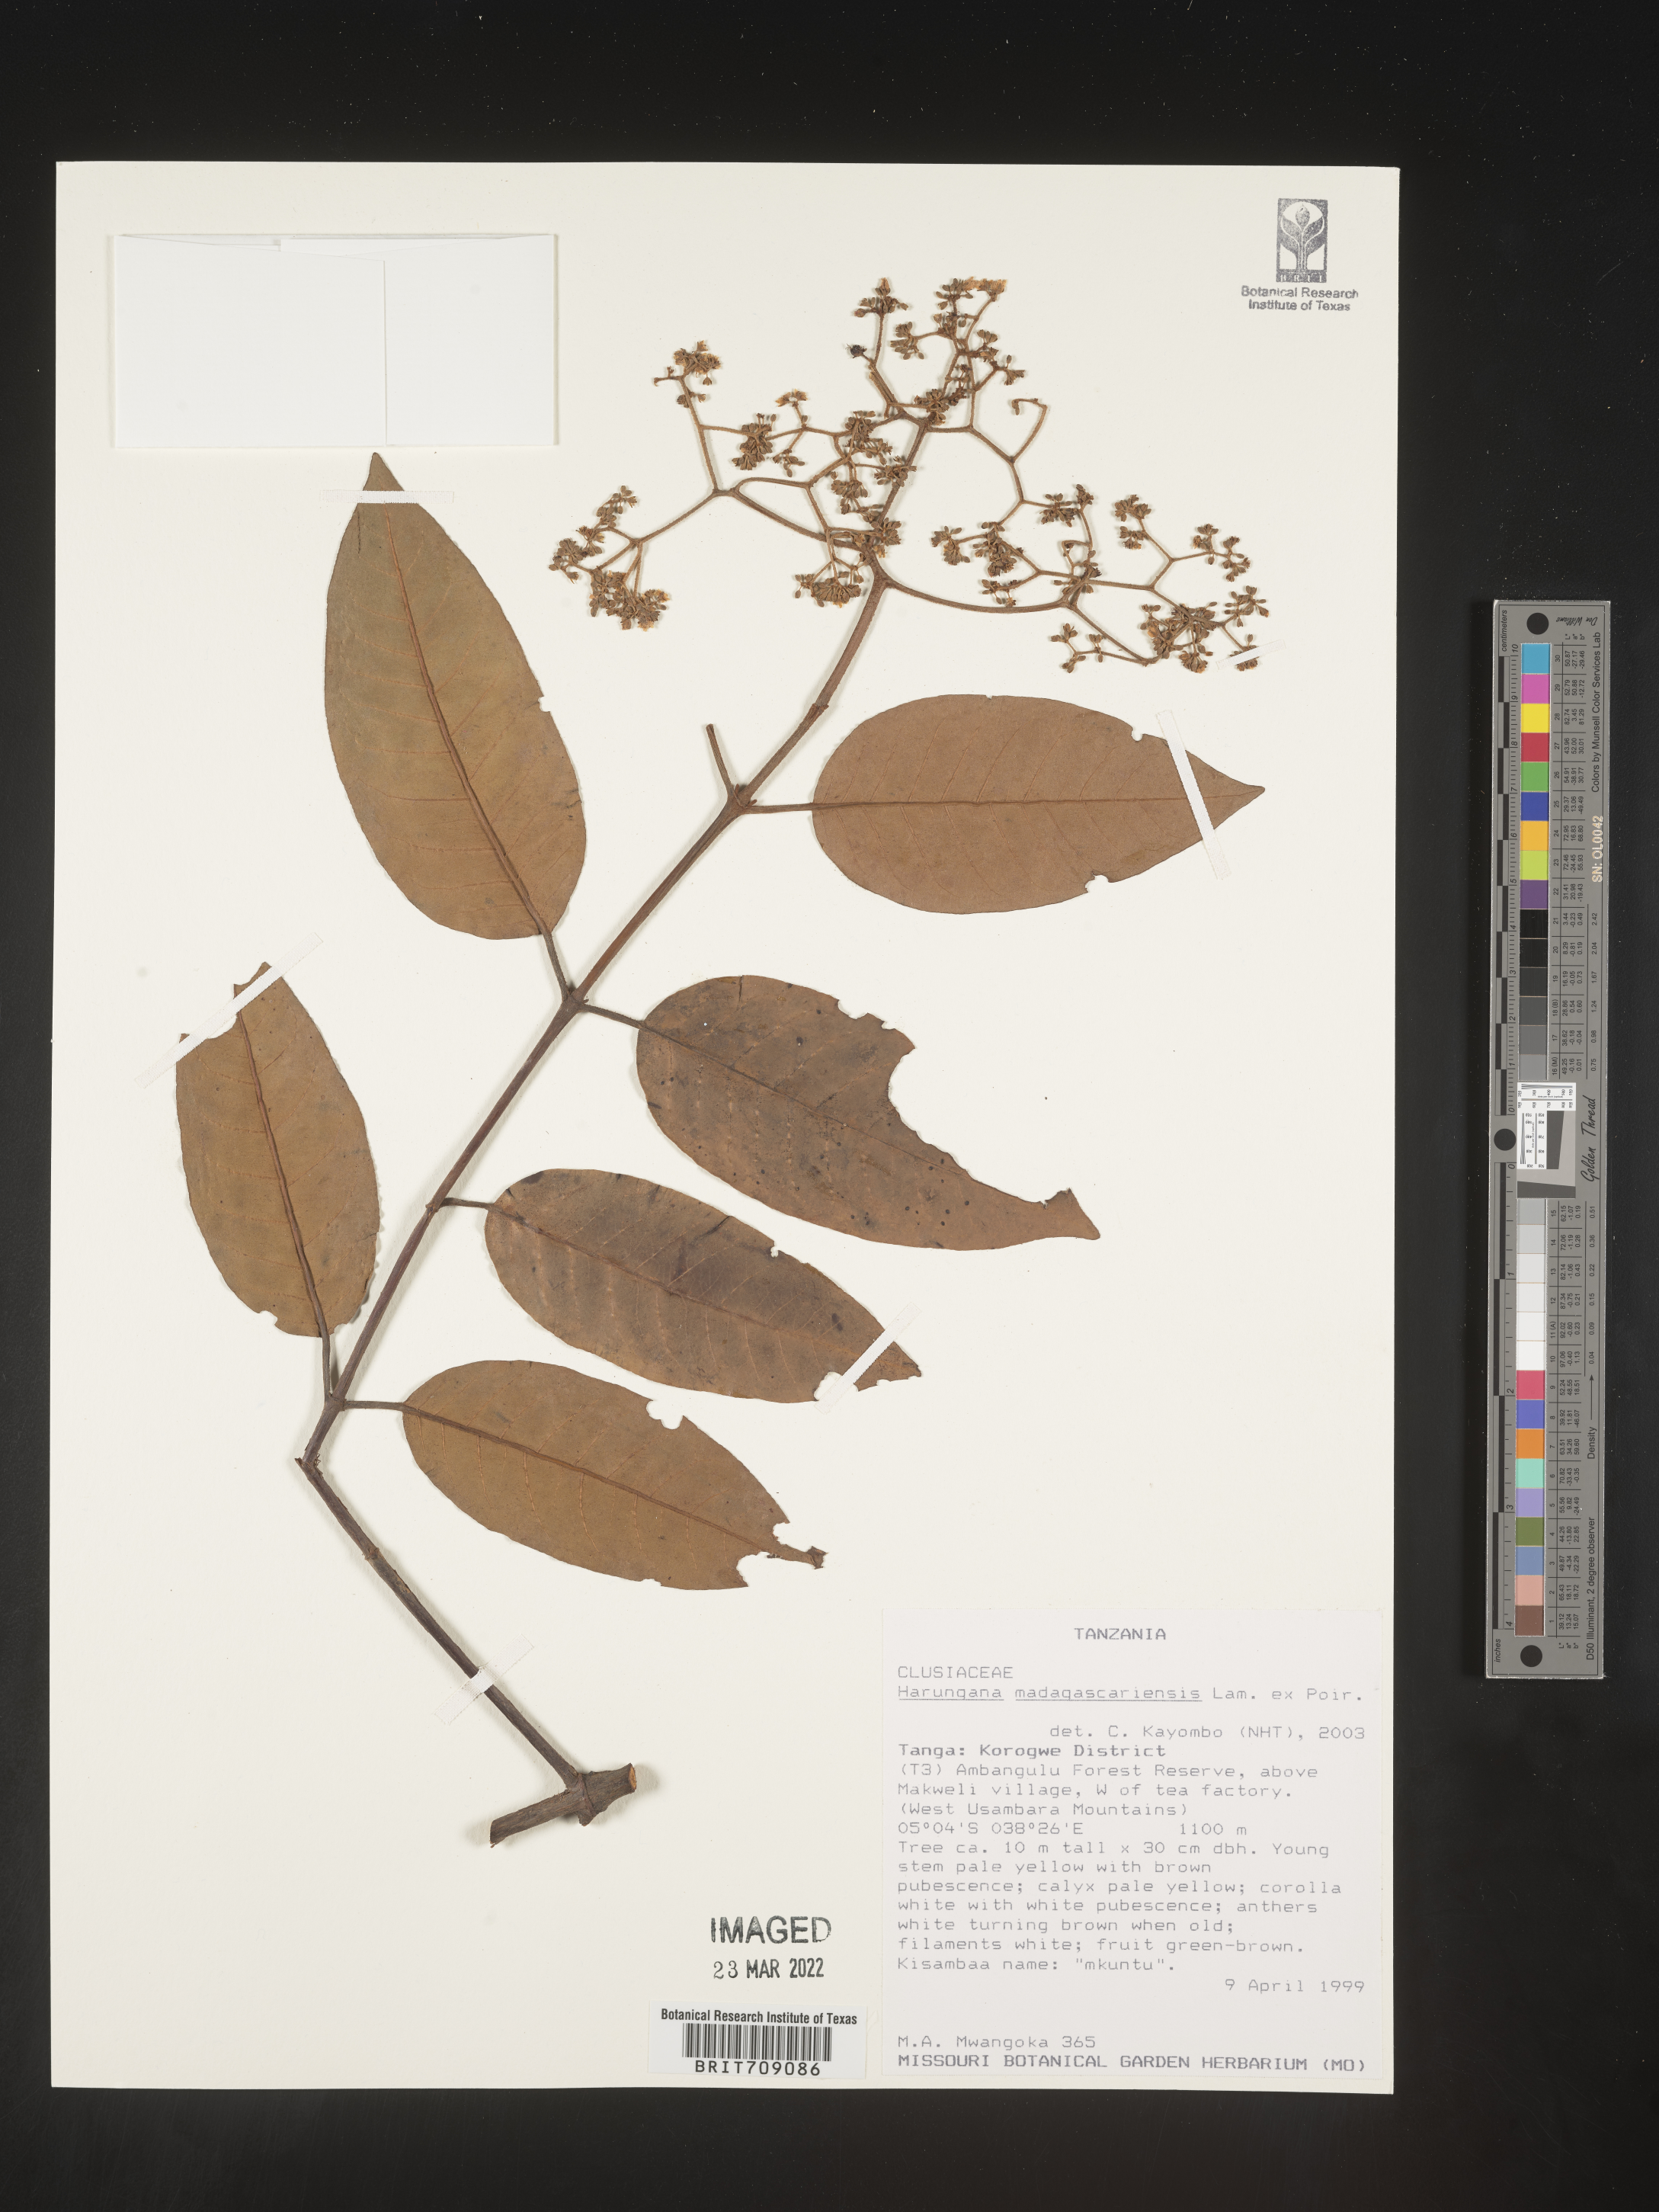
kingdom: Plantae
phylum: Tracheophyta
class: Magnoliopsida
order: Malpighiales
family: Hypericaceae
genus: Harungana
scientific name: Harungana
